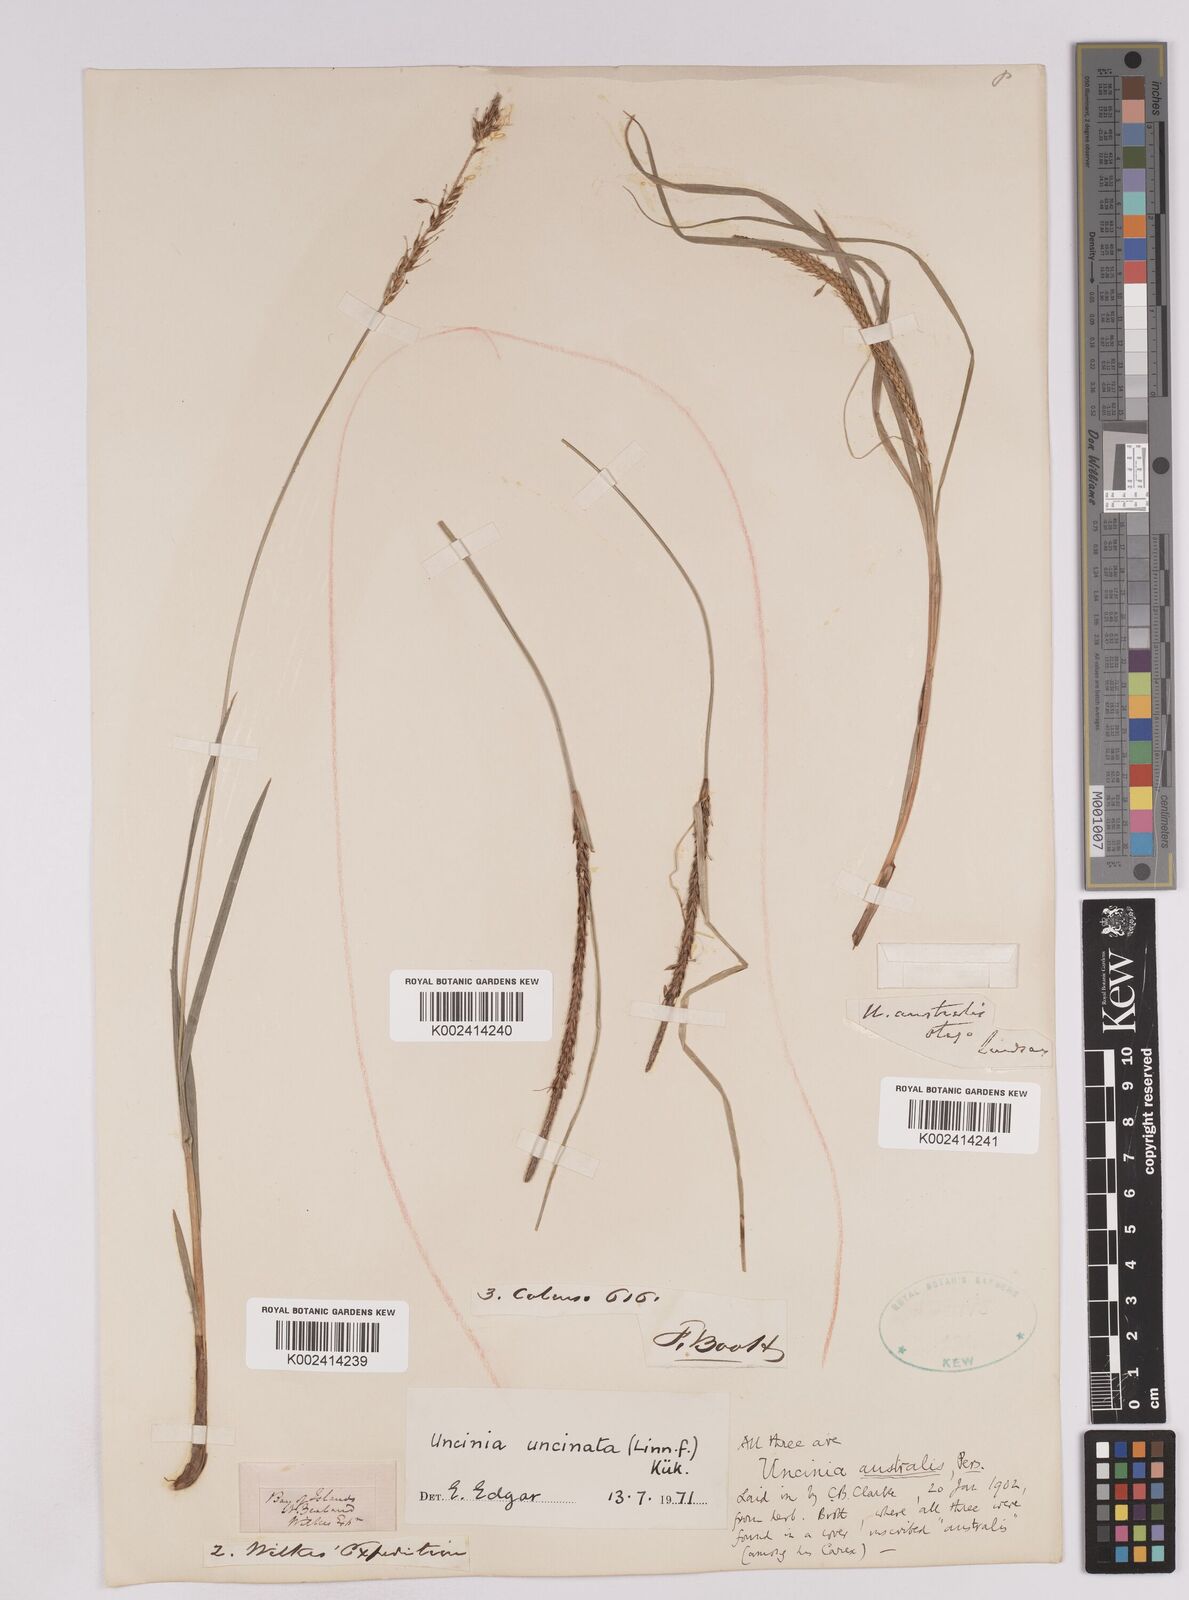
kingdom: Plantae
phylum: Tracheophyta
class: Liliopsida
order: Poales
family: Cyperaceae
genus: Carex
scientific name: Carex uncinata
